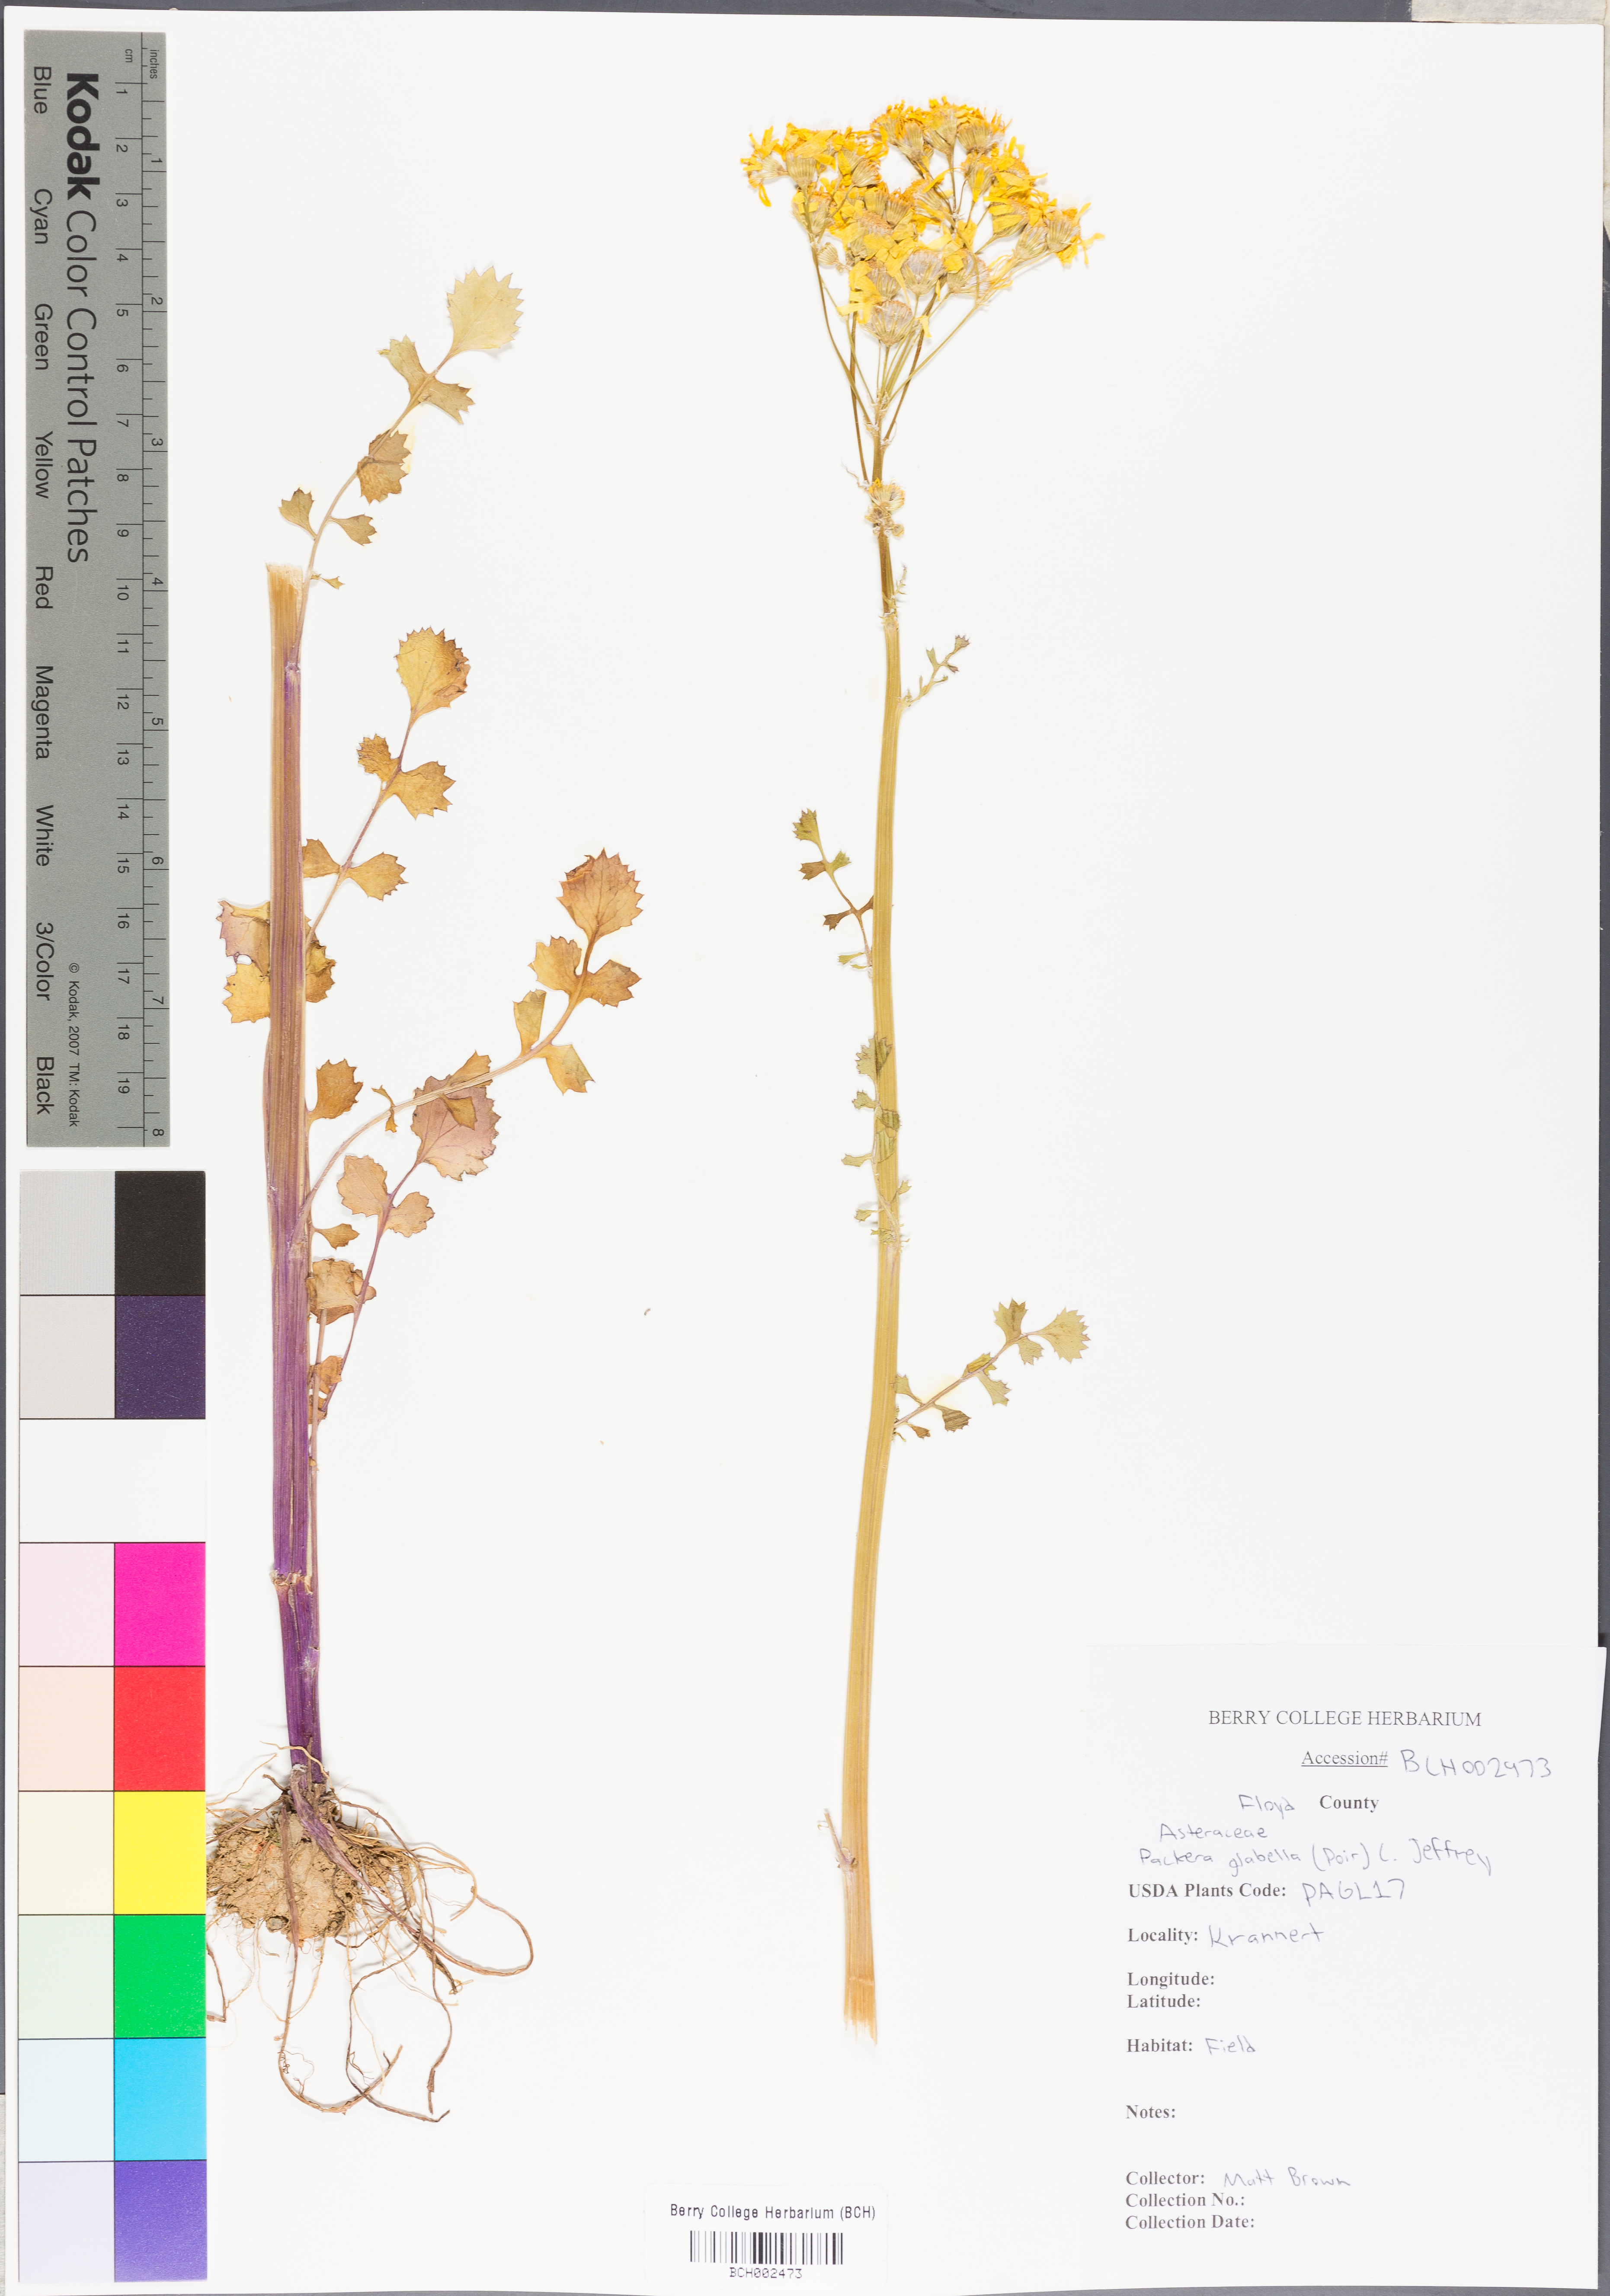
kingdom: Plantae
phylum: Tracheophyta
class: Magnoliopsida
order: Asterales
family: Asteraceae
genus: Packera
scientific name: Packera glabella
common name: Butterweed
